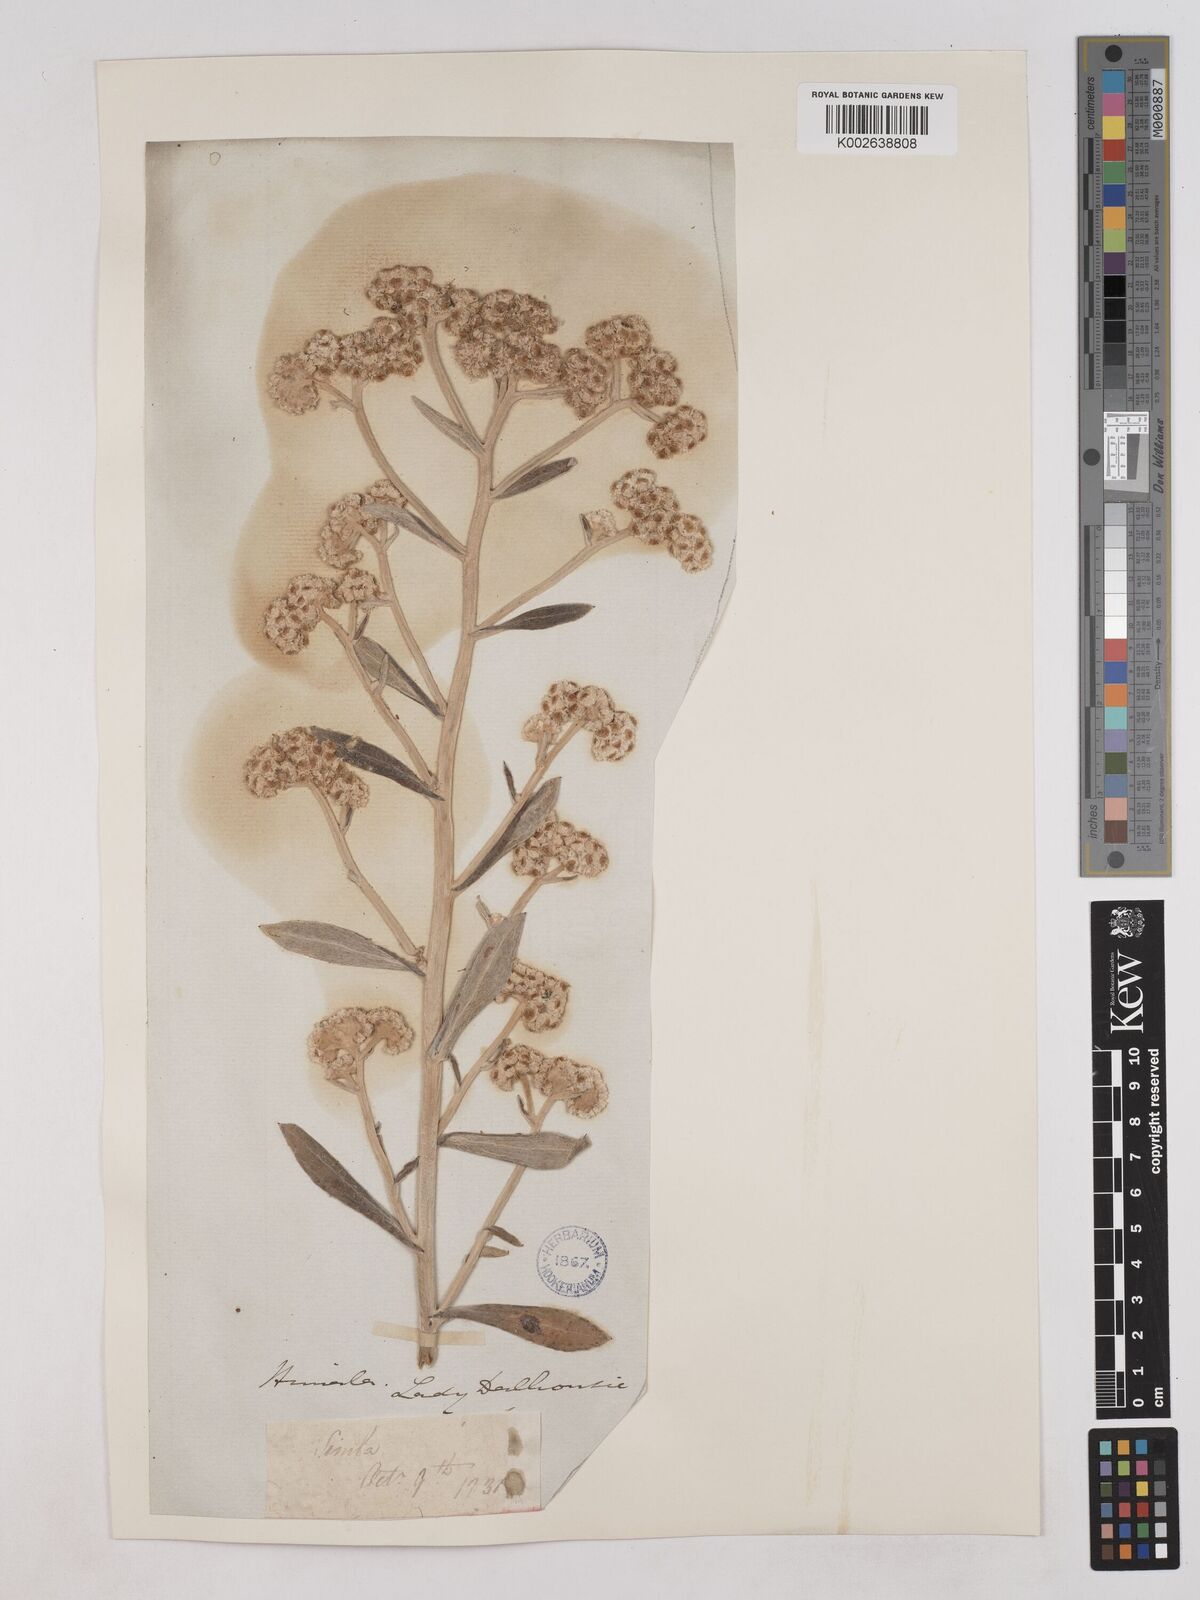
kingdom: Plantae
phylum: Tracheophyta
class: Magnoliopsida
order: Asterales
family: Asteraceae
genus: Pseudognaphalium
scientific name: Pseudognaphalium adnatum
